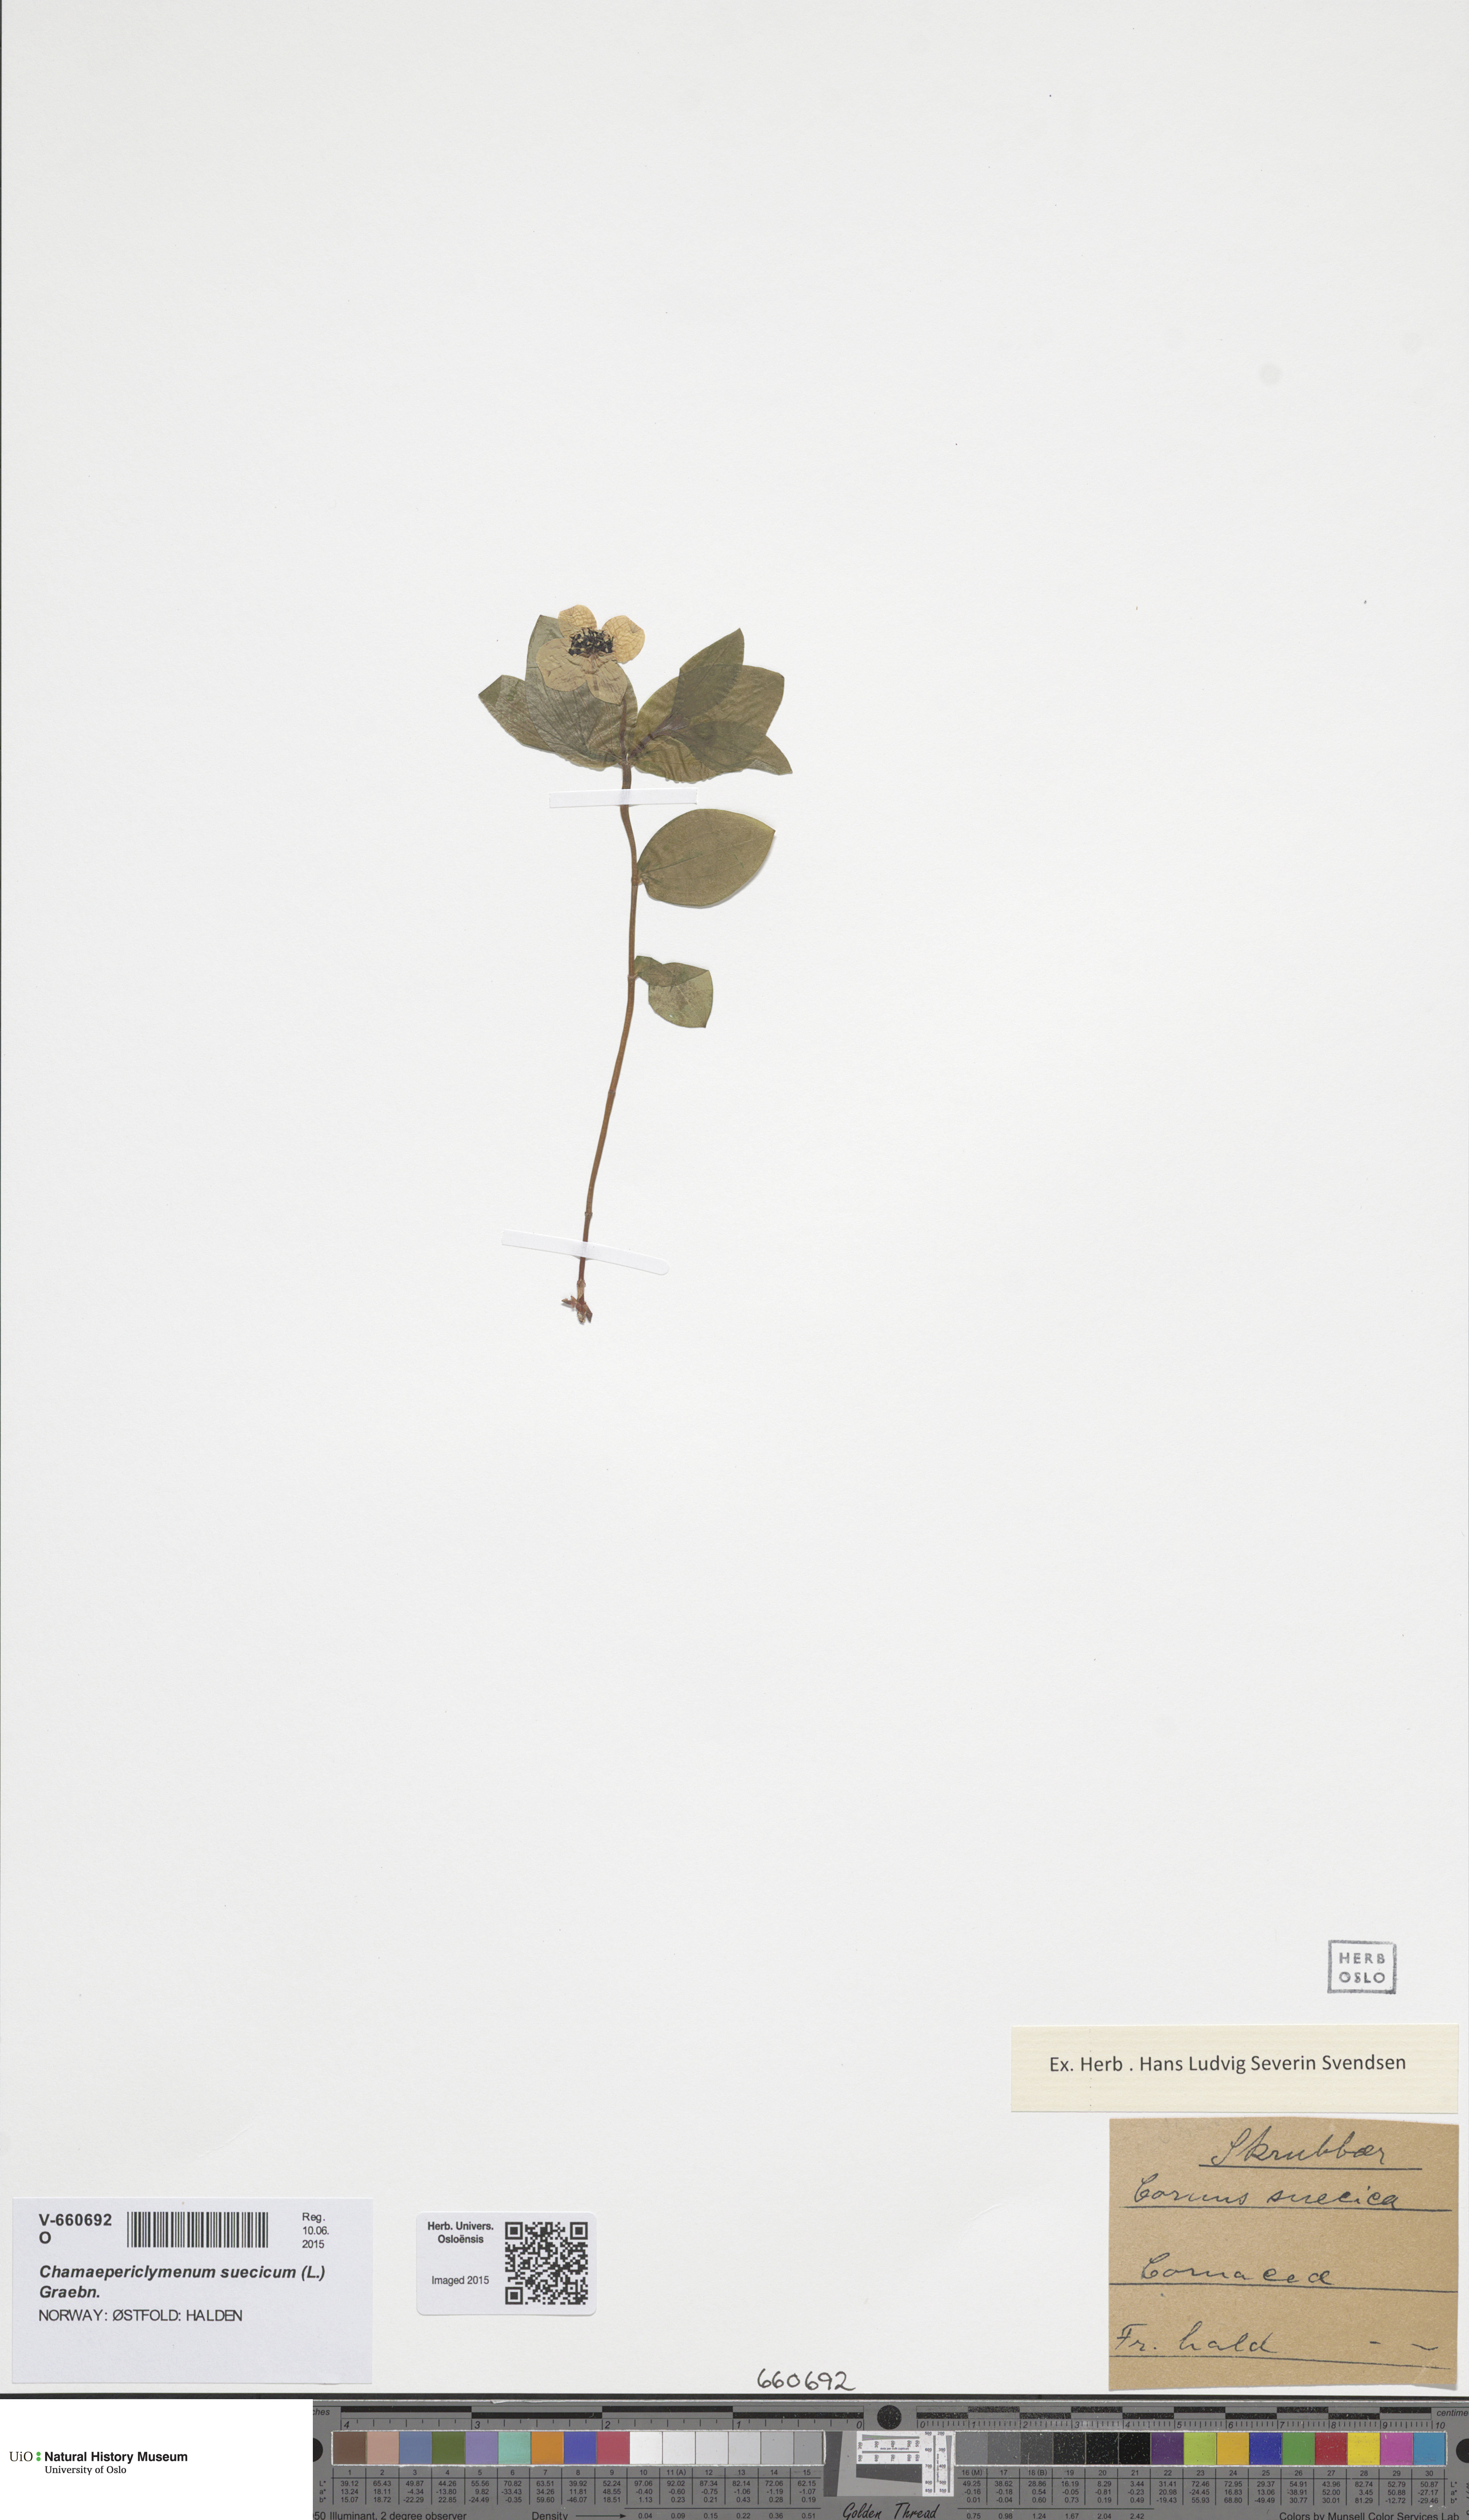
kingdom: Plantae
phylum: Tracheophyta
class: Magnoliopsida
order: Cornales
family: Cornaceae
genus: Cornus
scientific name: Cornus suecica
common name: Dwarf cornel
